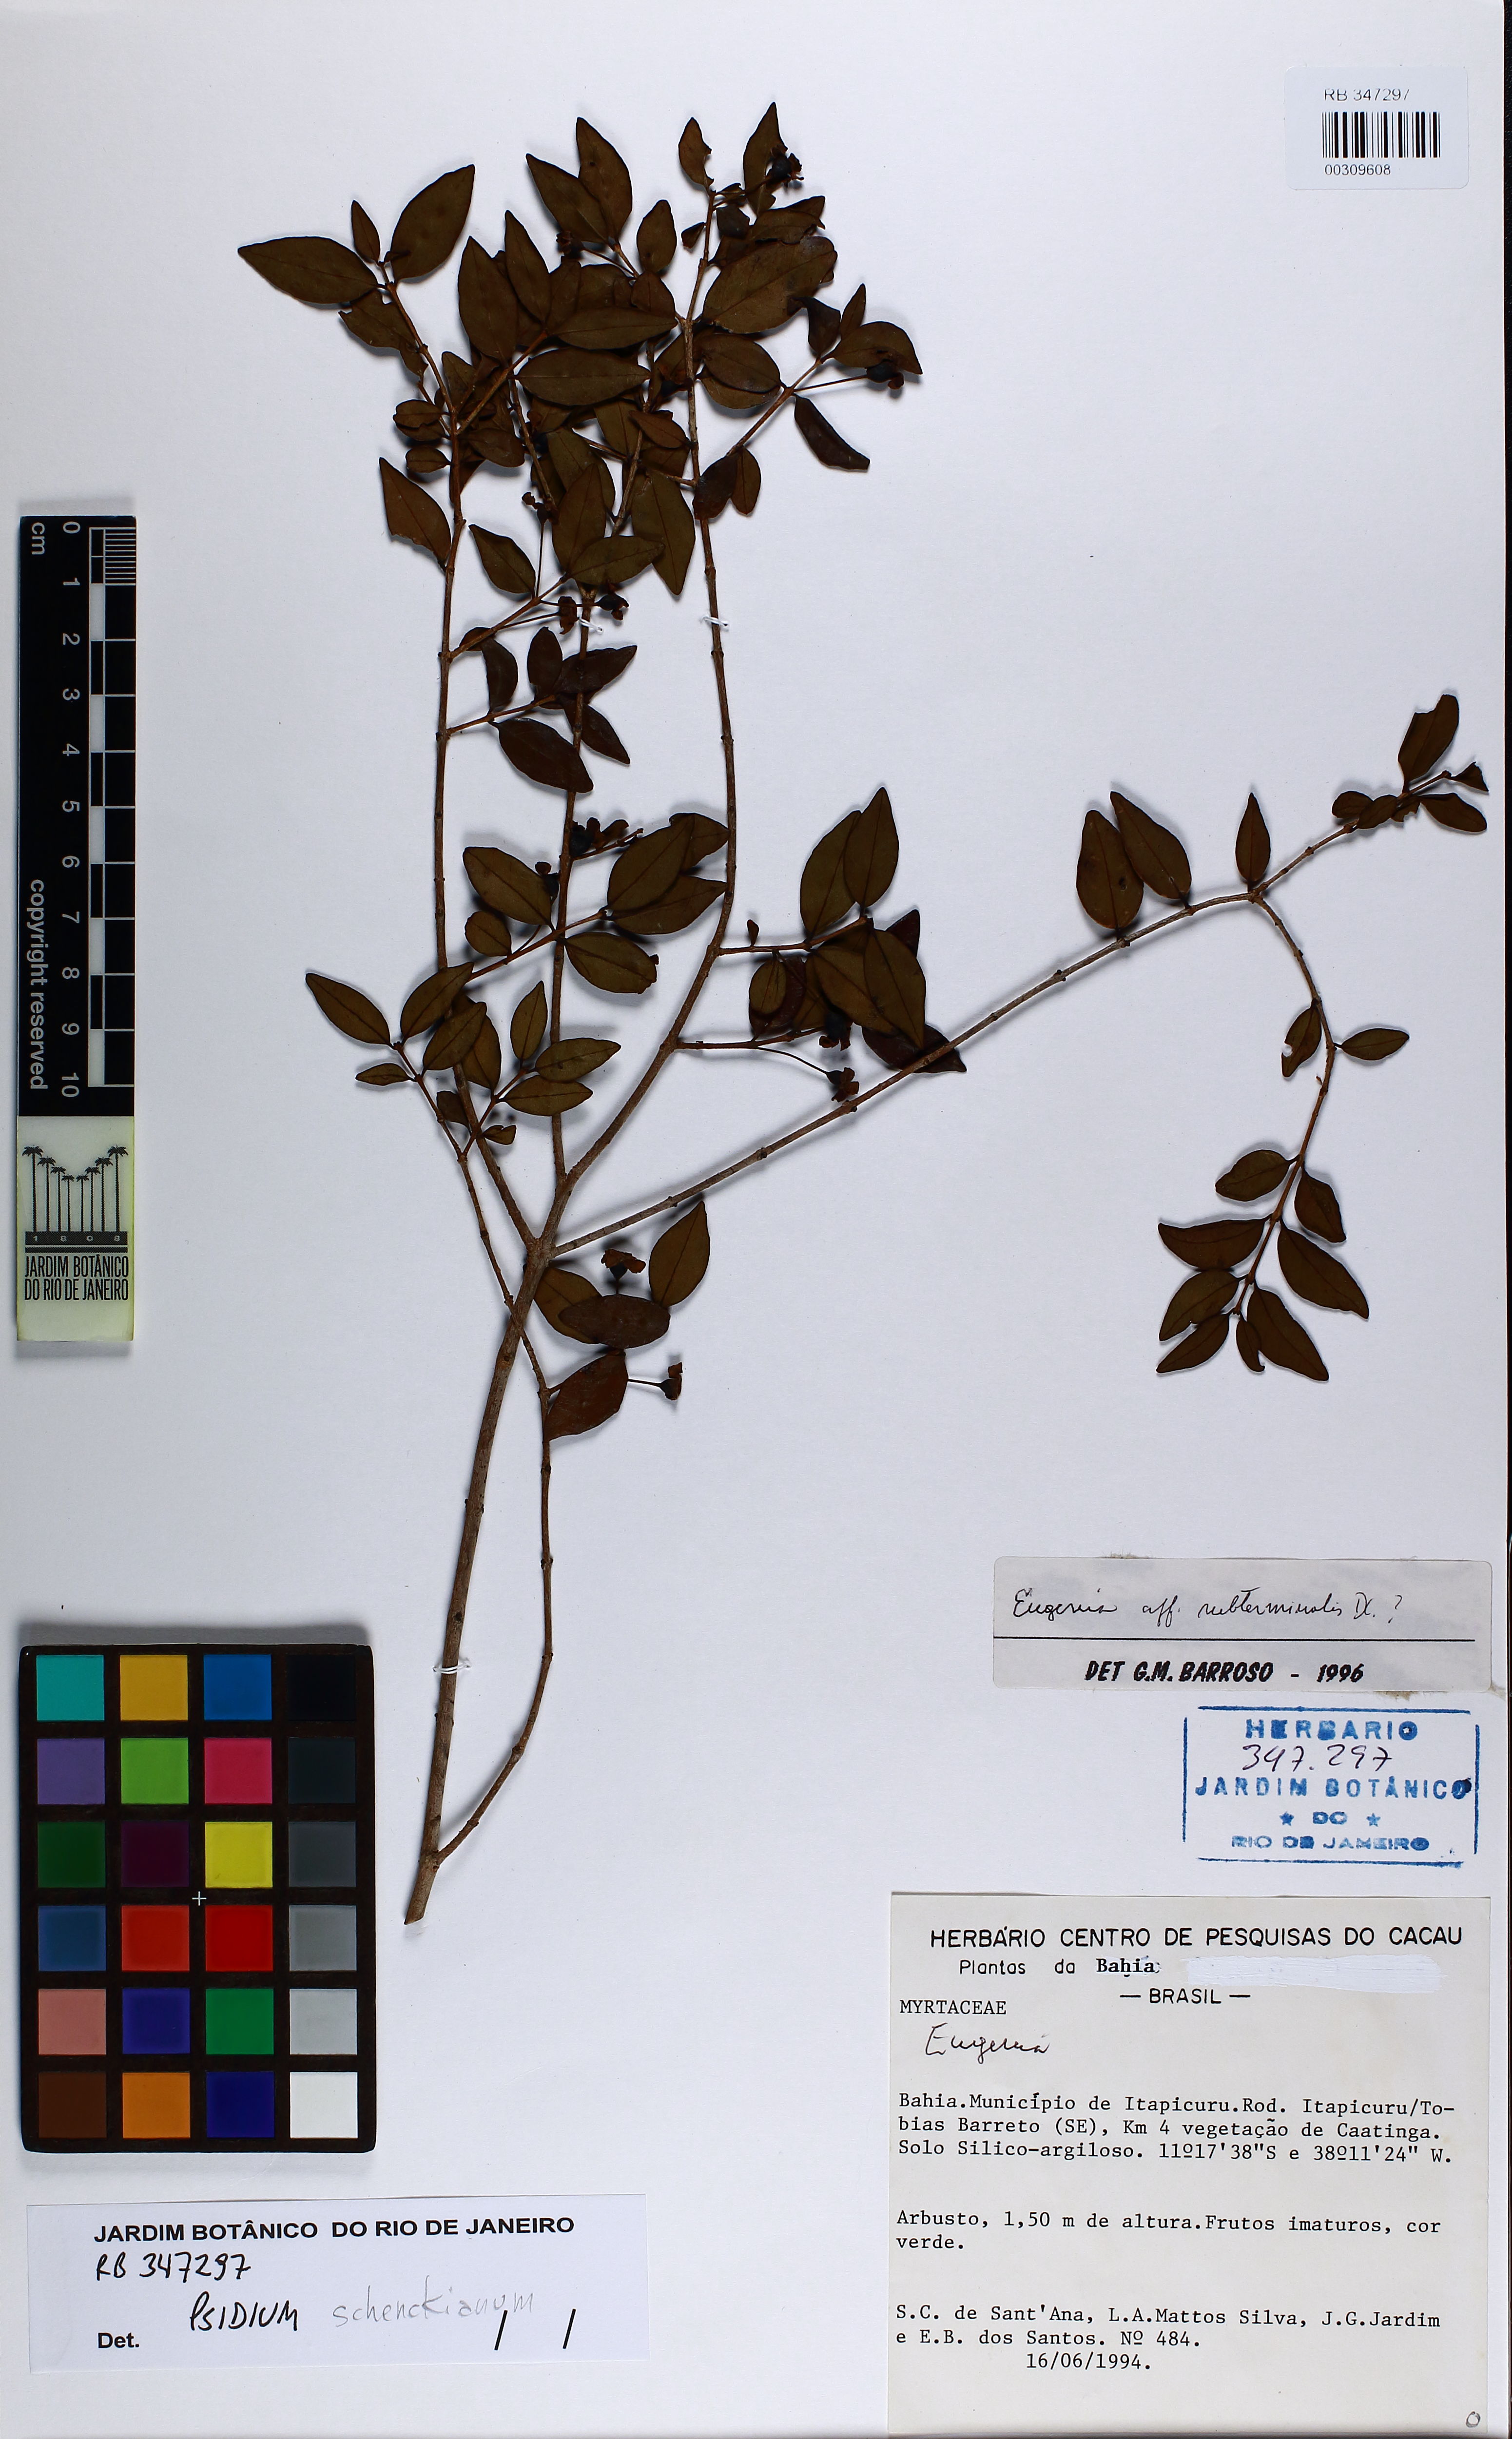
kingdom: Plantae
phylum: Tracheophyta
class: Magnoliopsida
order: Myrtales
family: Myrtaceae
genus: Psidium
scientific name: Psidium schenckianum
